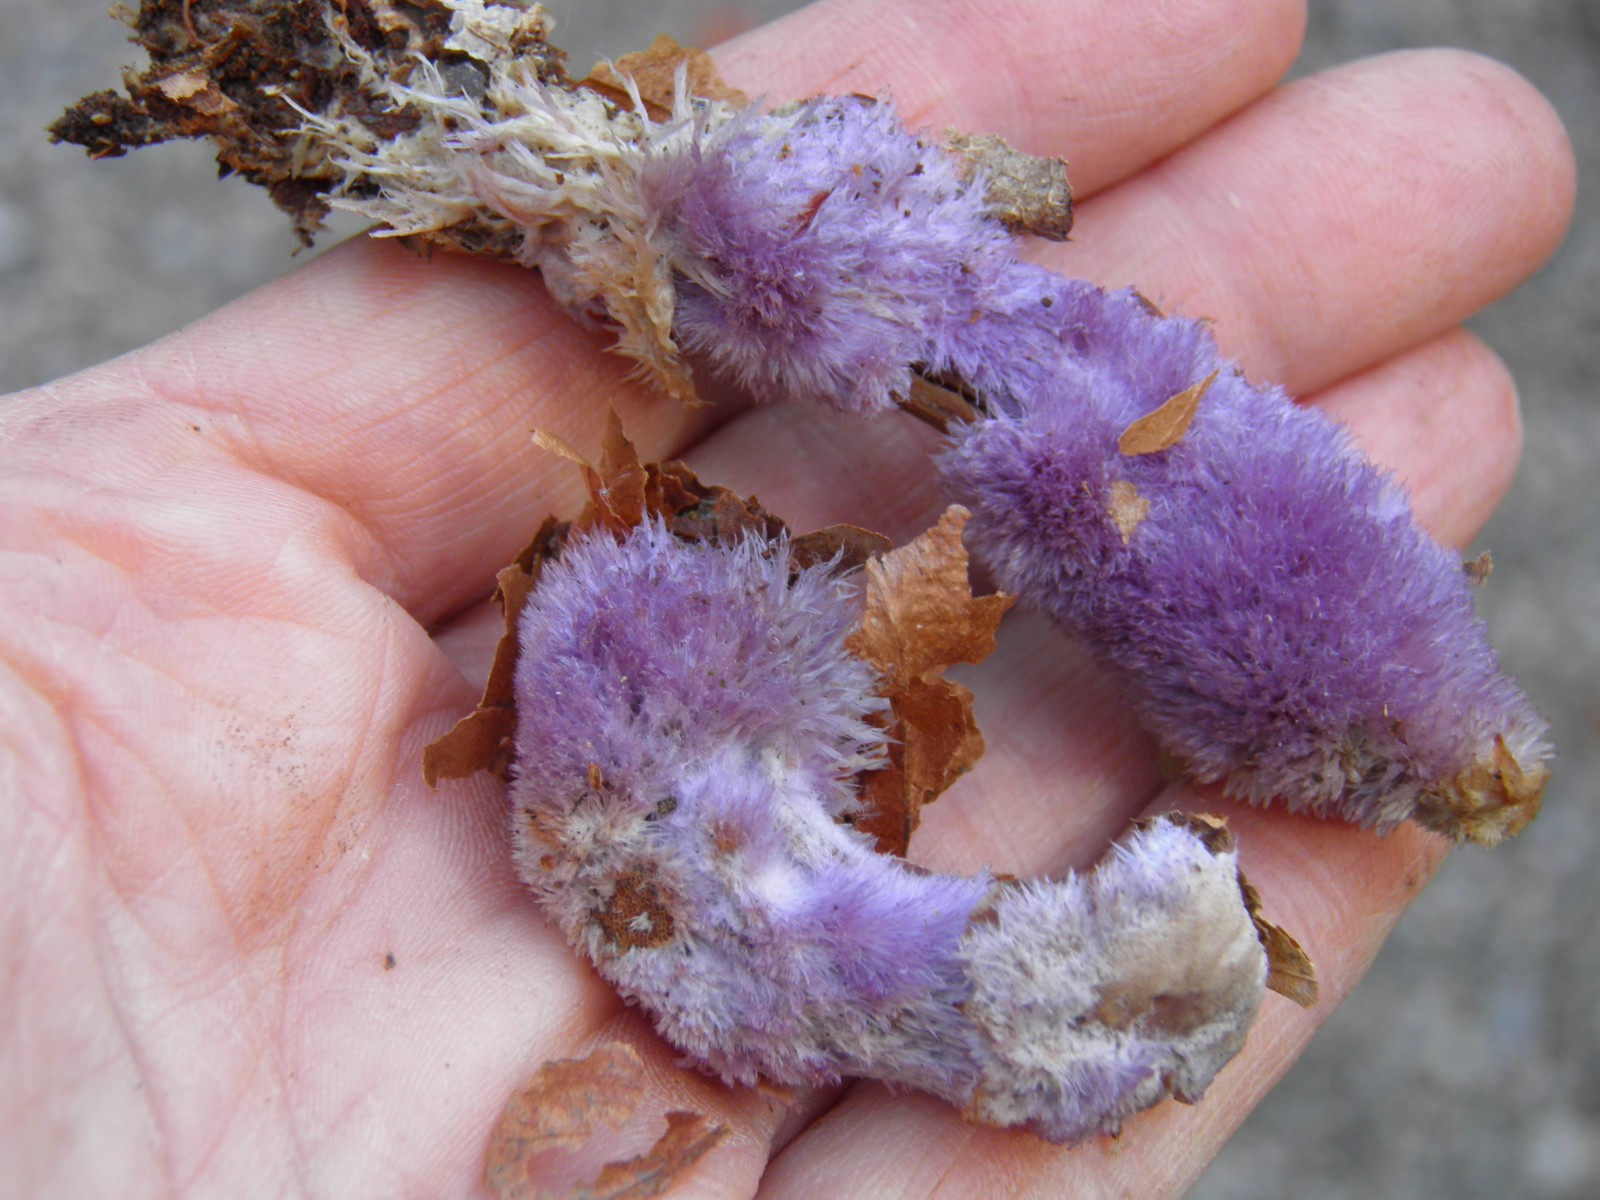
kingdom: Fungi
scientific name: Fungi
